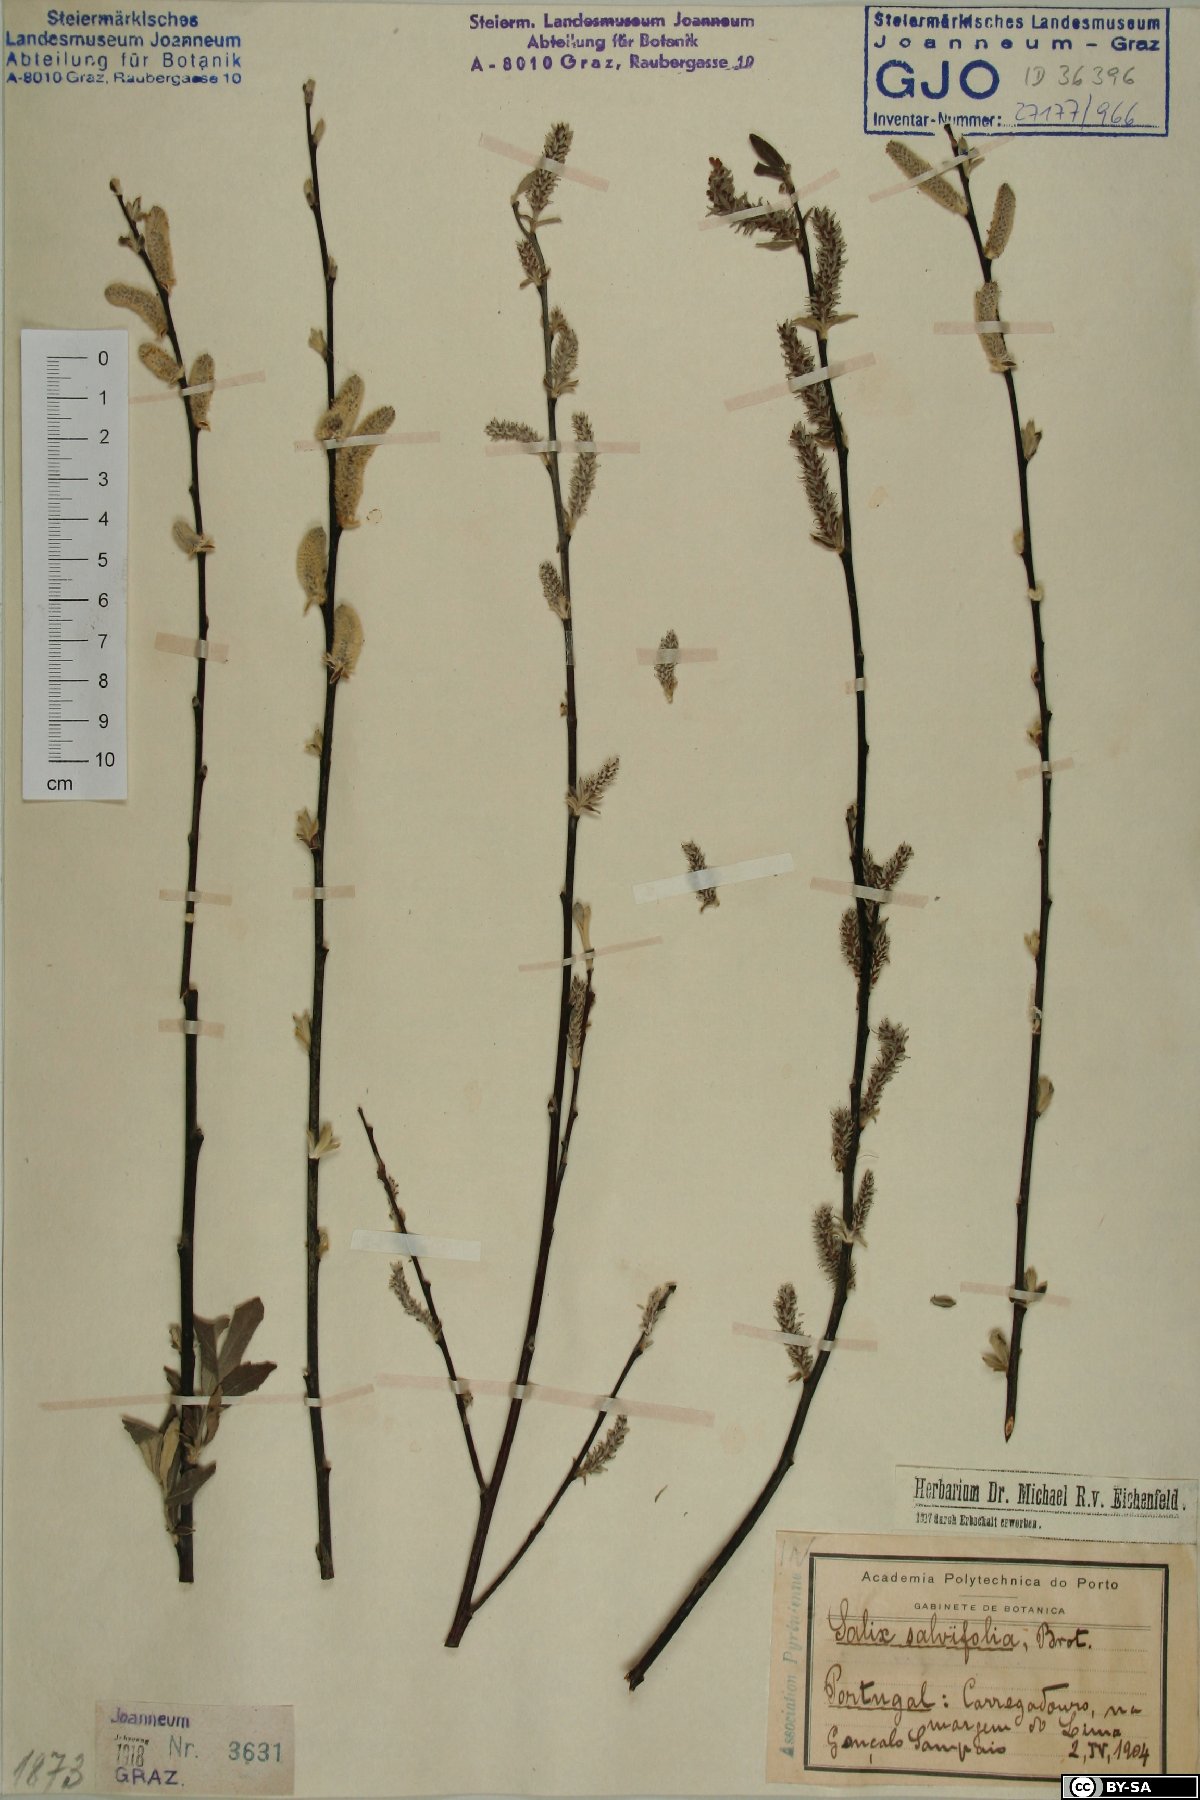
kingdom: Plantae
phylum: Tracheophyta
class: Magnoliopsida
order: Malpighiales
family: Salicaceae
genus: Salix
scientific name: Salix salviifolia
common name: Salvia-leaf willow
